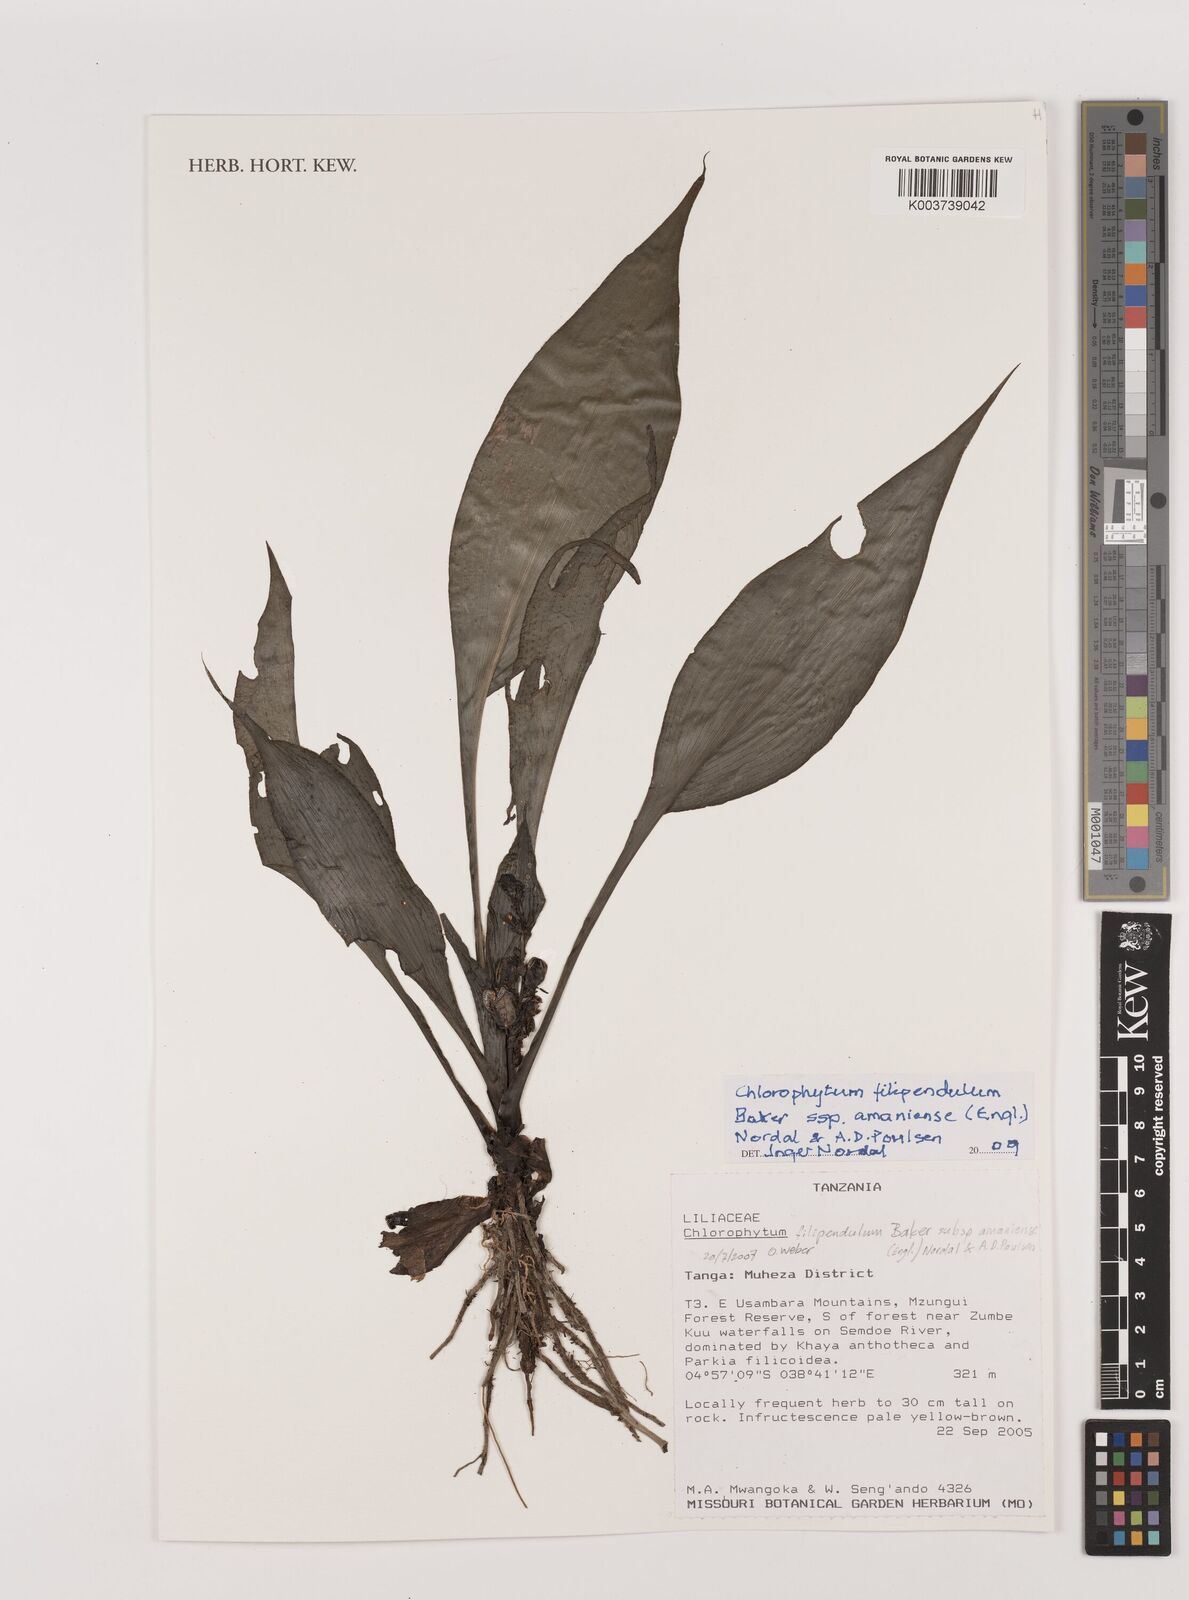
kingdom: Plantae
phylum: Tracheophyta
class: Liliopsida
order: Asparagales
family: Asparagaceae
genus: Chlorophytum
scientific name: Chlorophytum filipendulum
